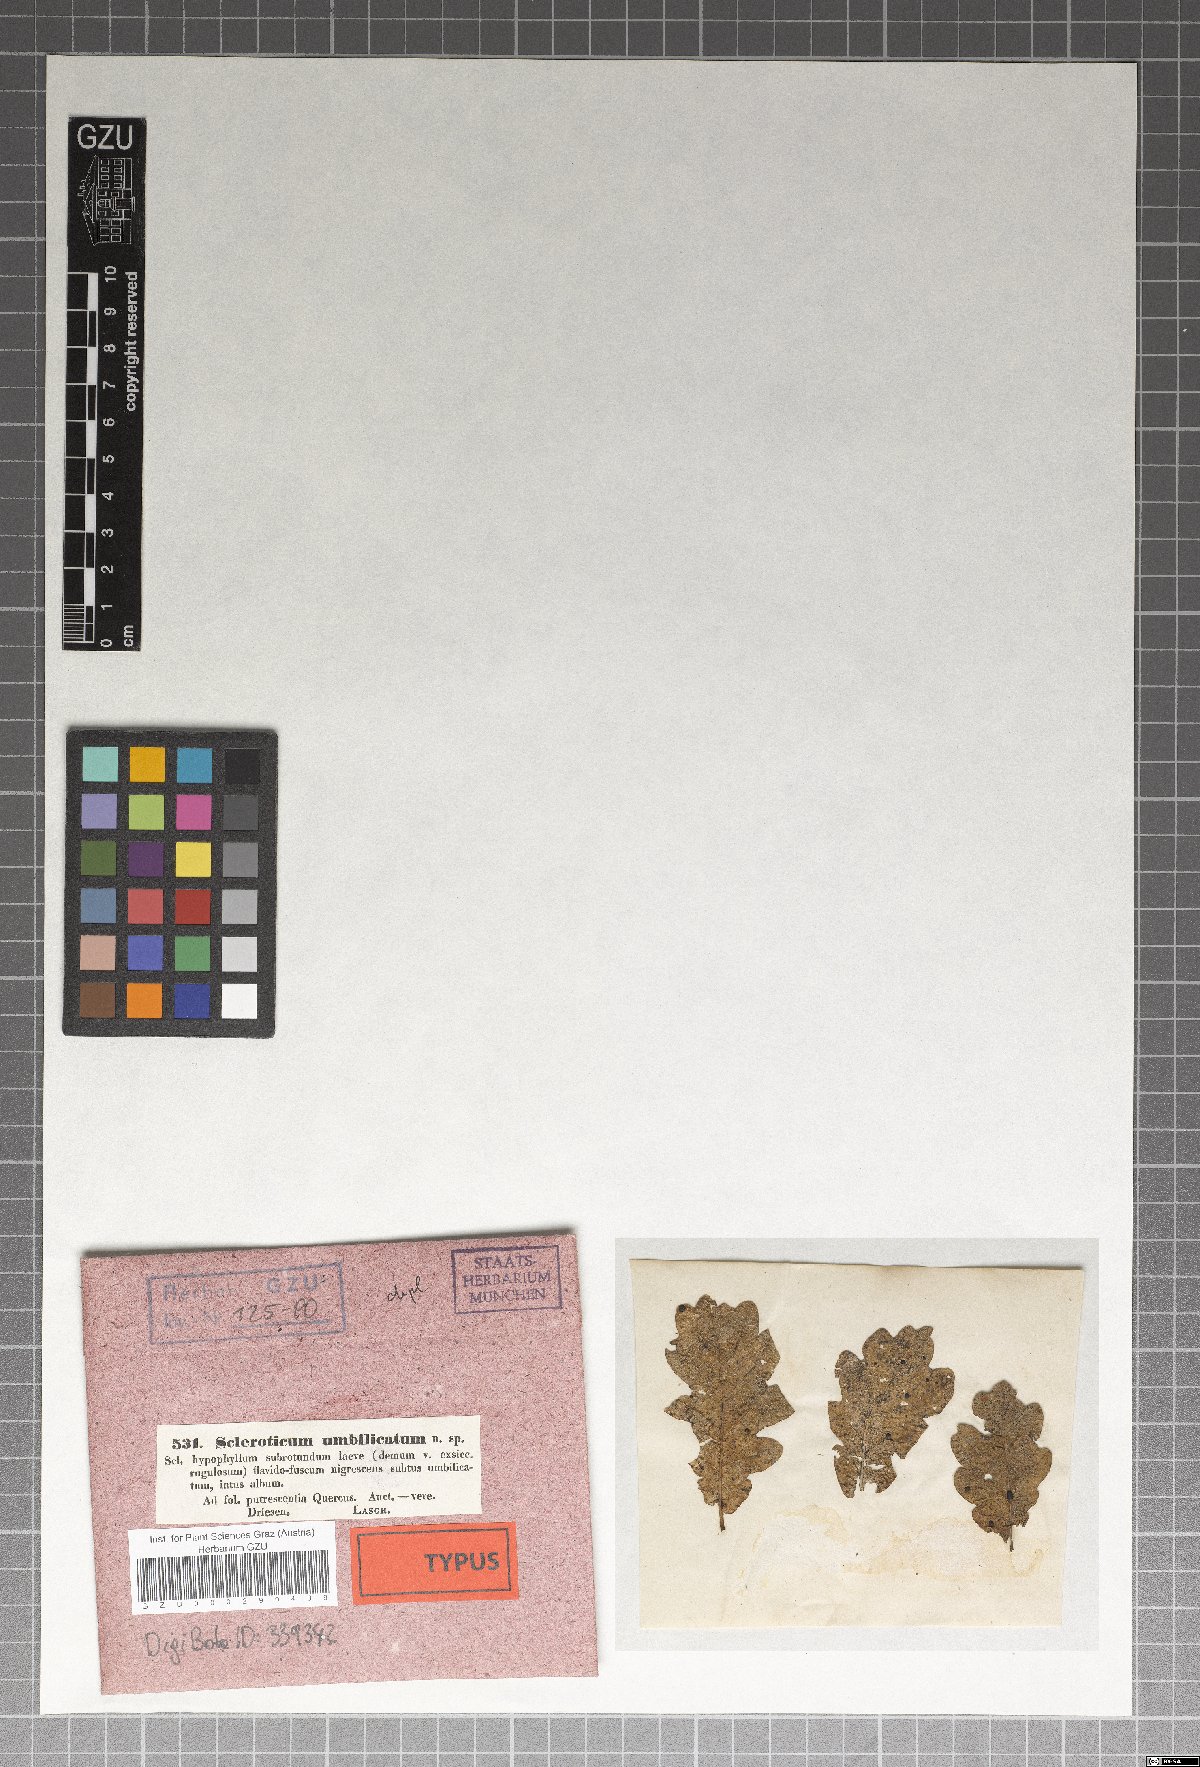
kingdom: Fungi
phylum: Basidiomycota
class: Agaricomycetes
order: Agaricales
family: Typhulaceae
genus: Sclerotium
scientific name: Sclerotium patouillardii
